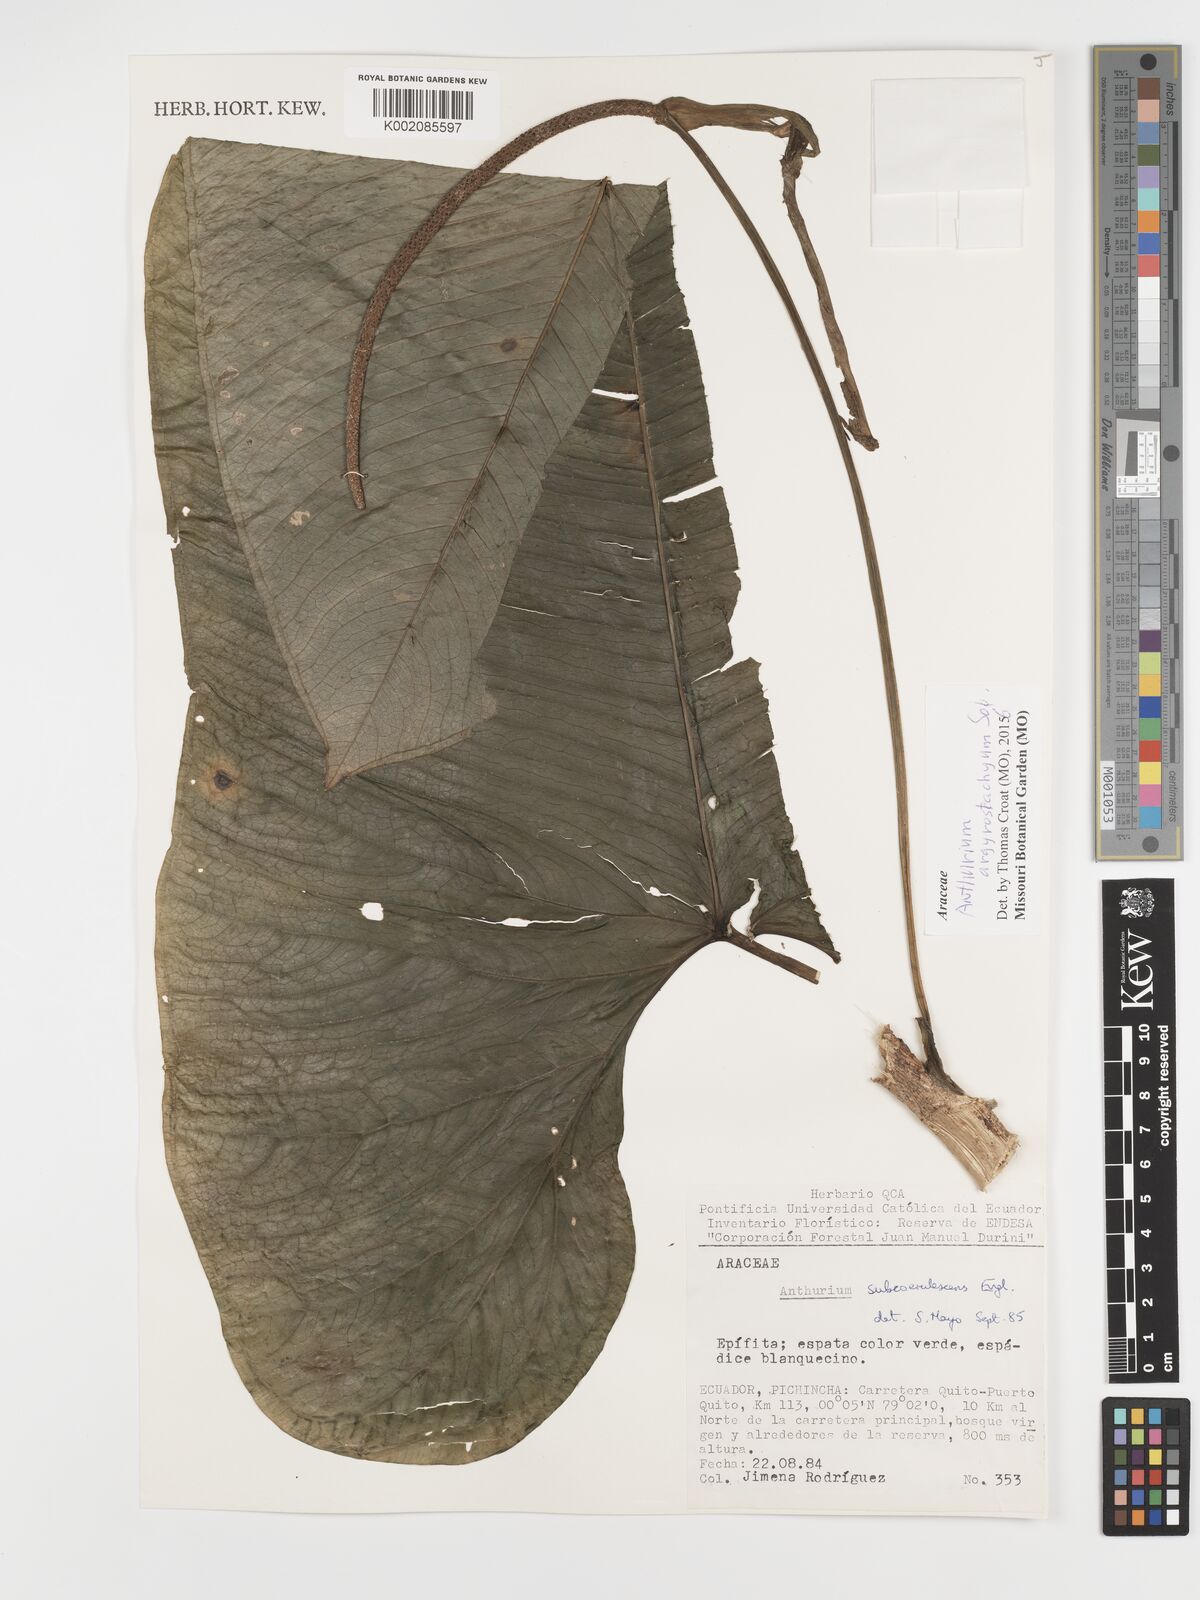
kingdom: Plantae
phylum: Tracheophyta
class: Liliopsida
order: Alismatales
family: Araceae
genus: Anthurium
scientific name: Anthurium argyrostachyum
